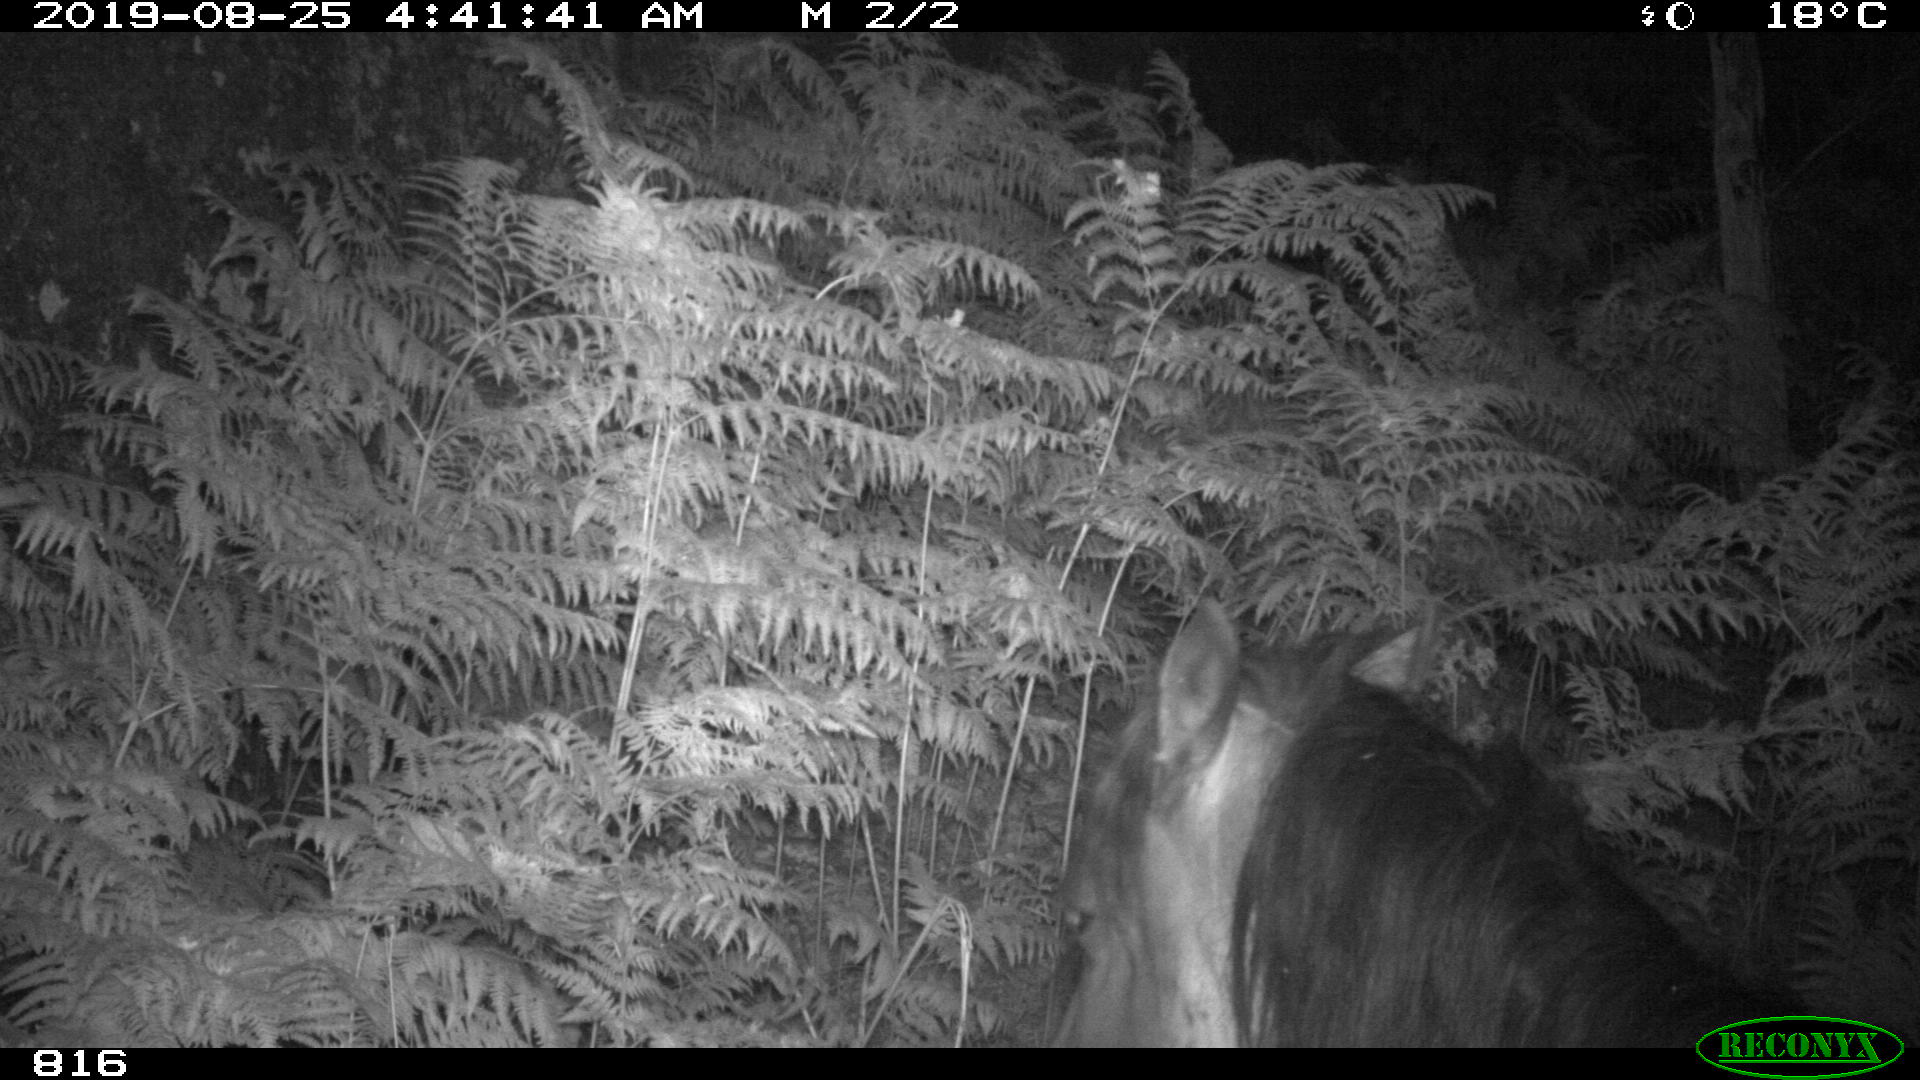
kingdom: Animalia
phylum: Chordata
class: Mammalia
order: Perissodactyla
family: Equidae
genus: Equus
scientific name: Equus caballus
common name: Horse
